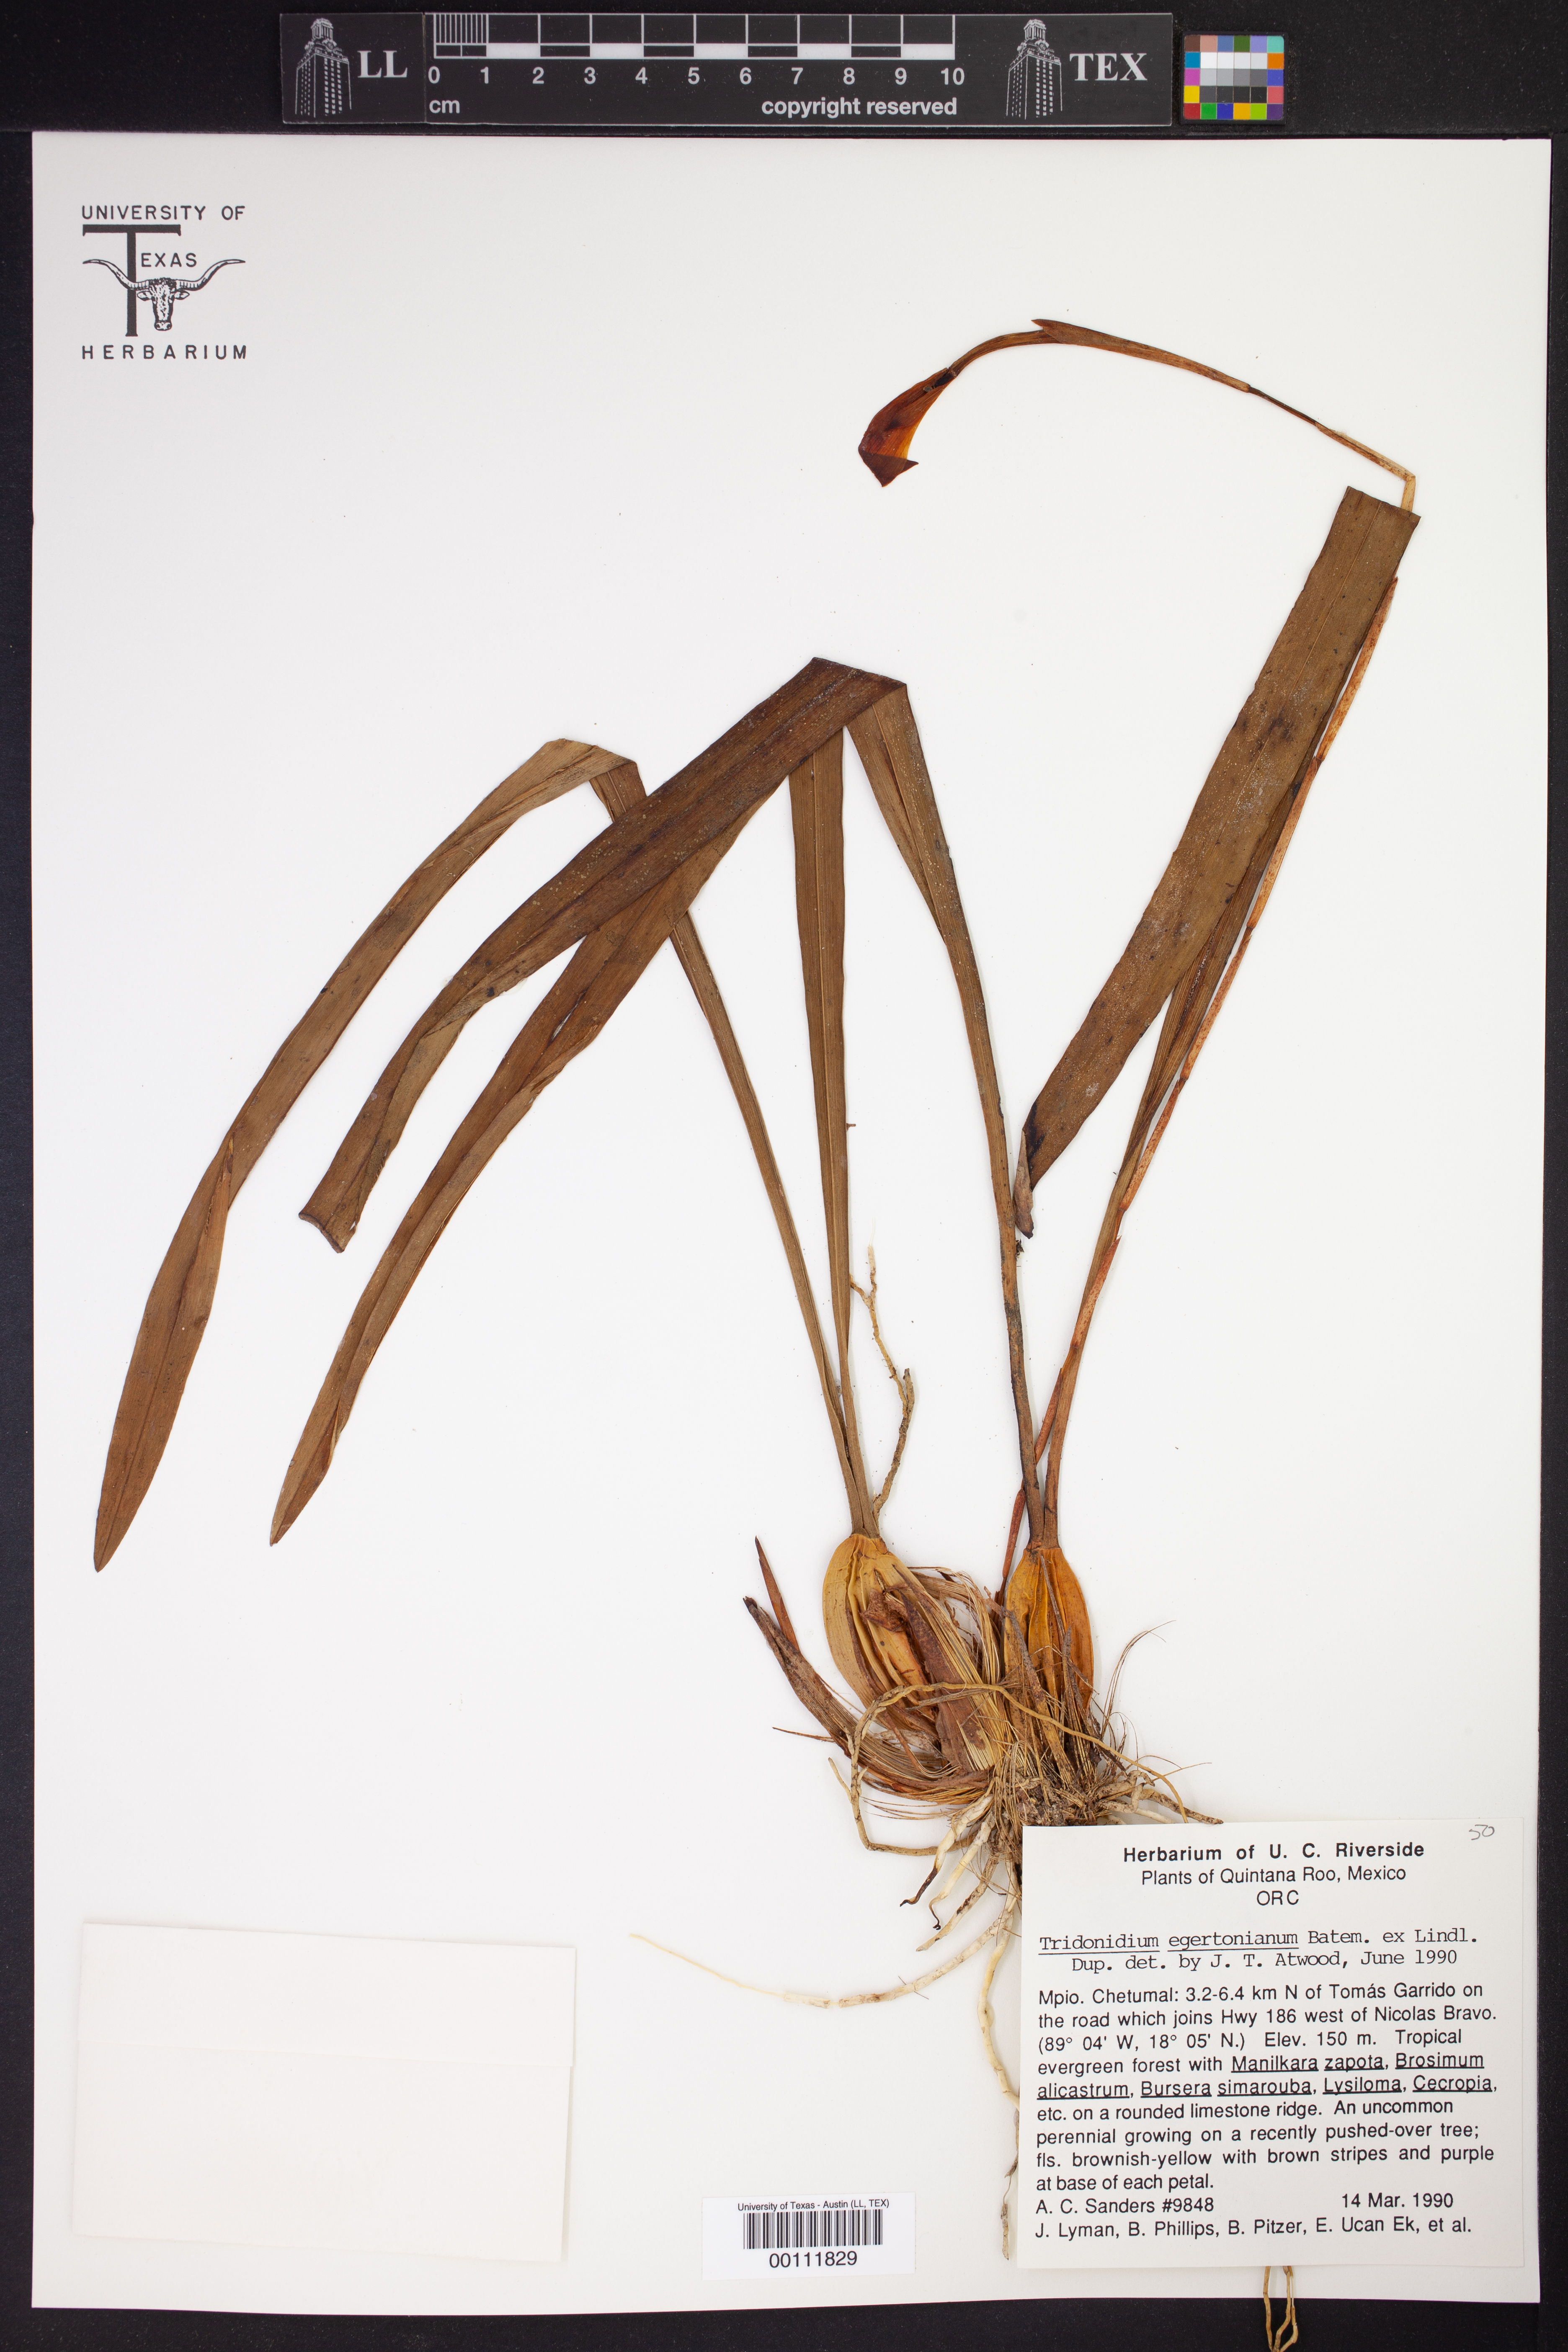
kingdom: Plantae
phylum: Tracheophyta
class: Liliopsida
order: Asparagales
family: Orchidaceae
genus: Maxillaria
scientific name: Maxillaria egertoniana
